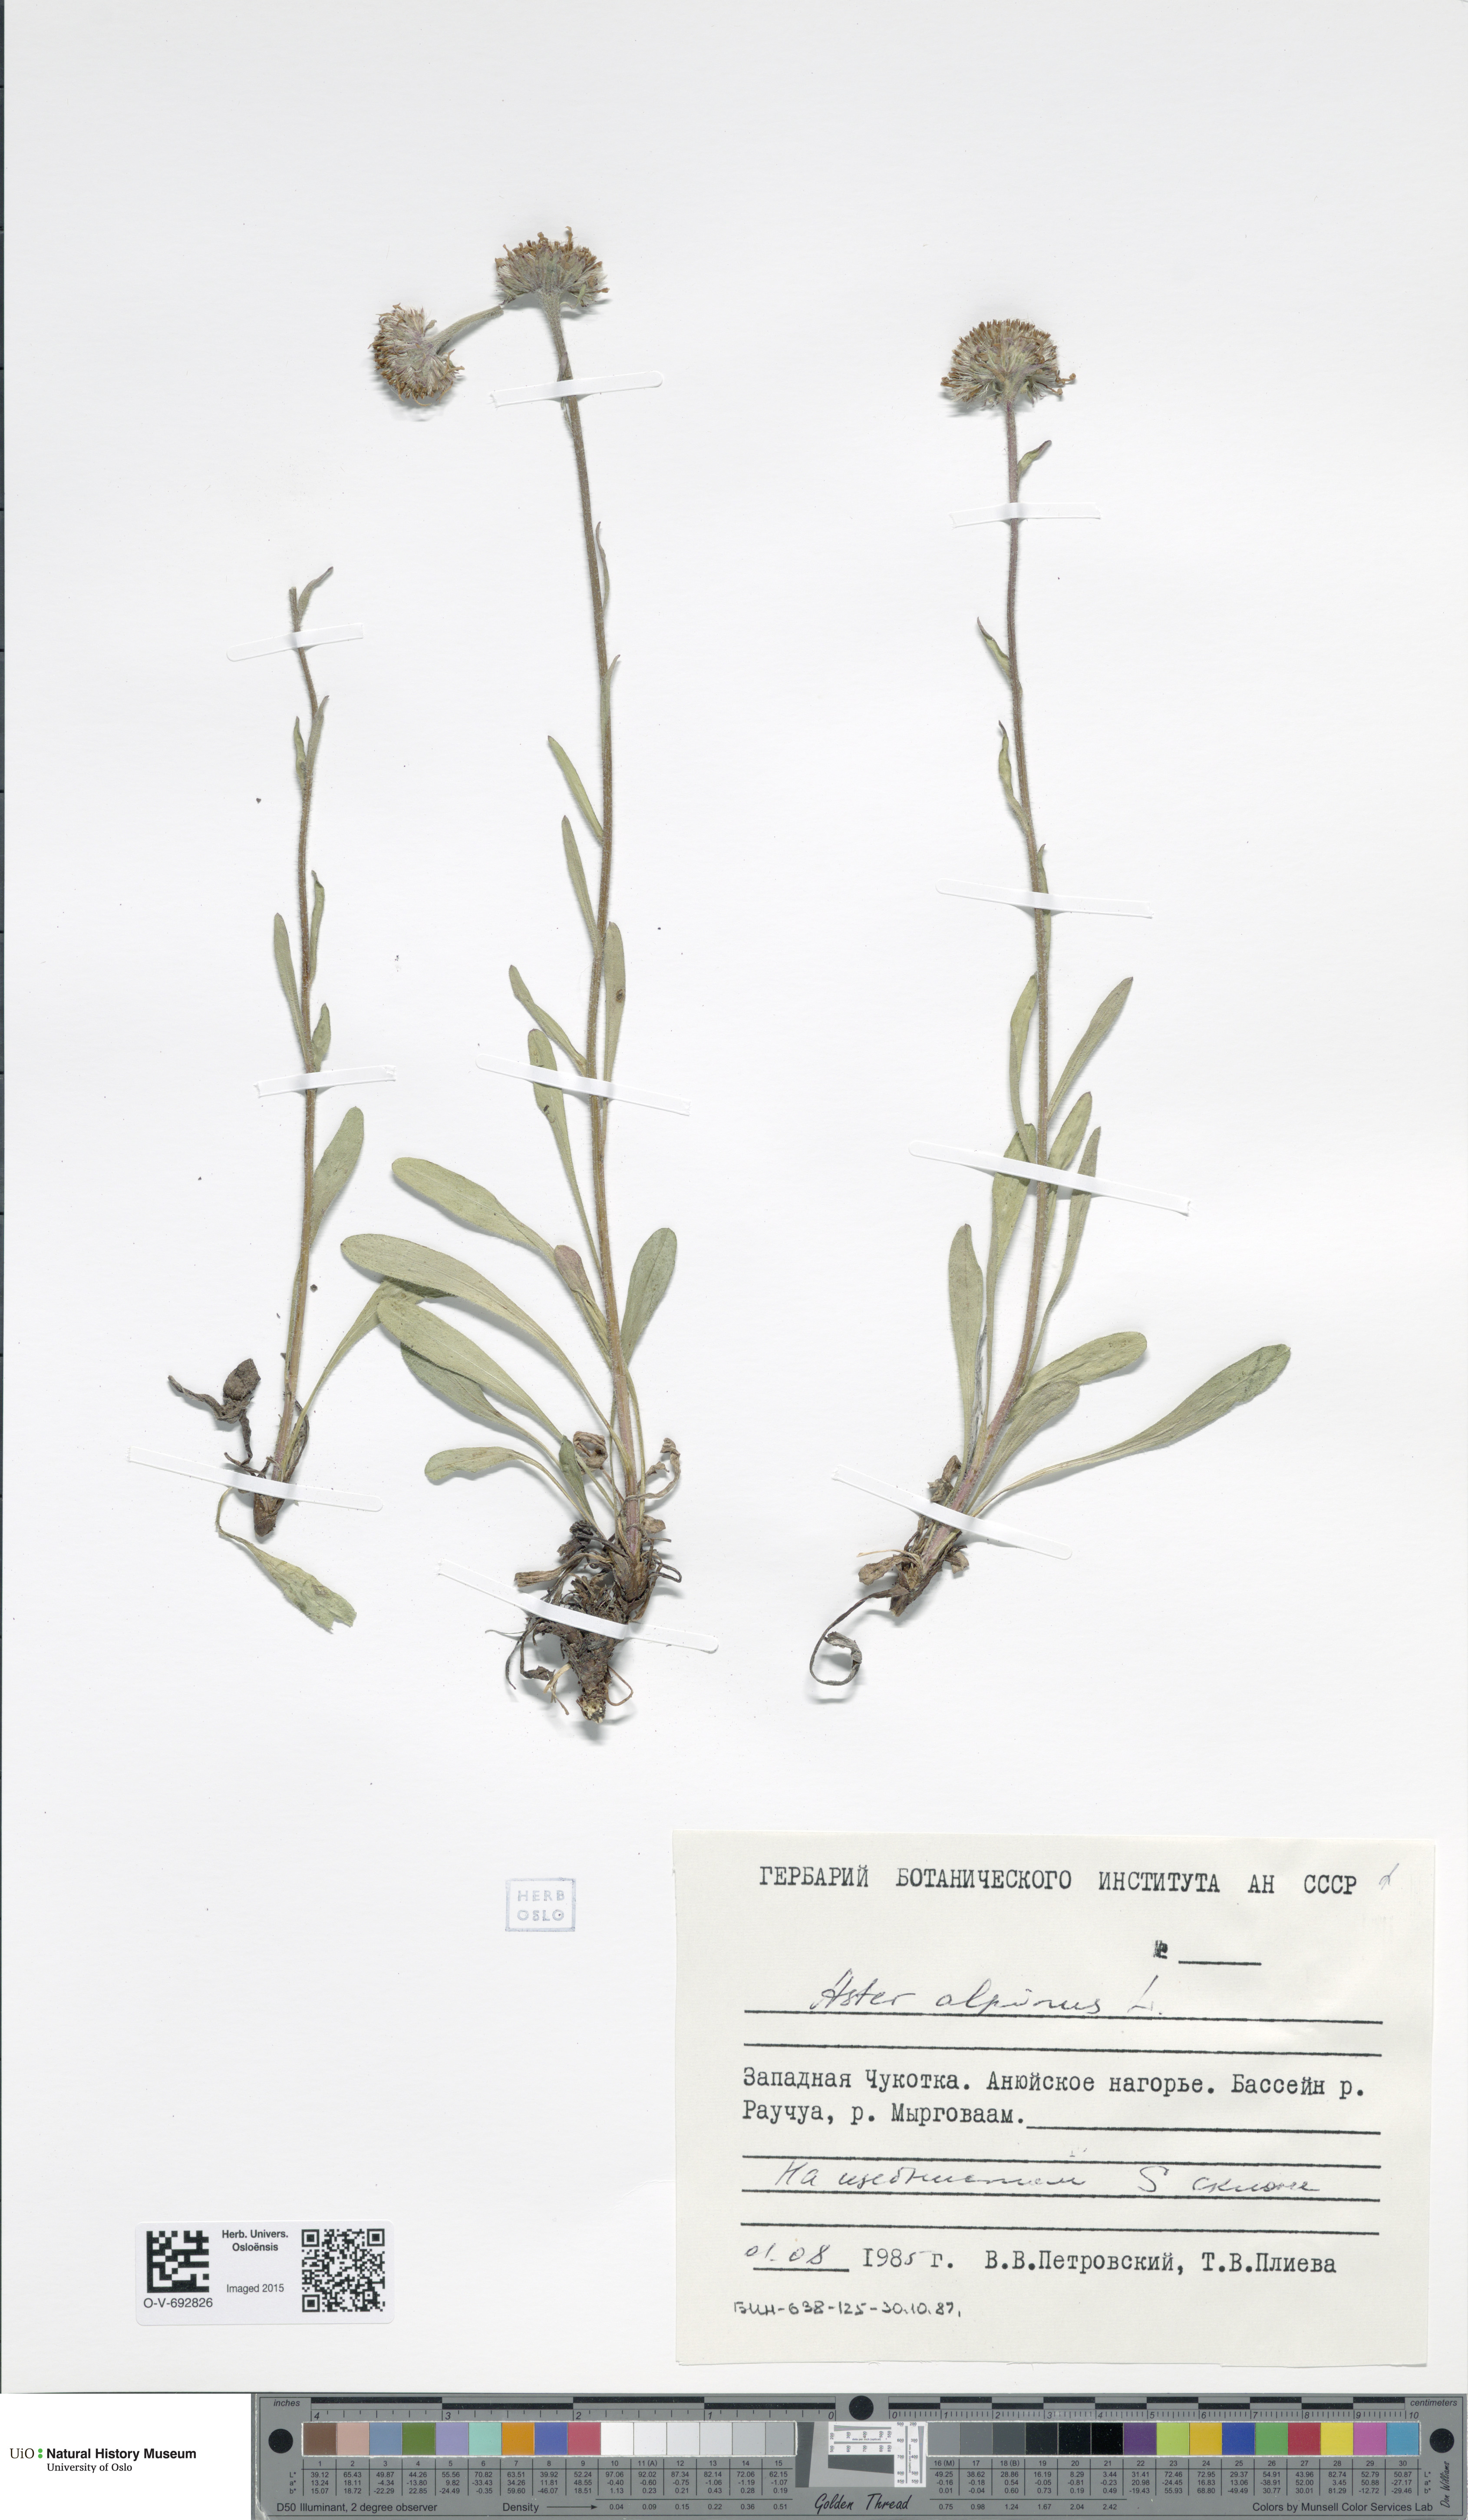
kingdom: Plantae
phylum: Tracheophyta
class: Magnoliopsida
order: Asterales
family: Asteraceae
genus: Aster
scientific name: Aster alpinus
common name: Alpine aster
